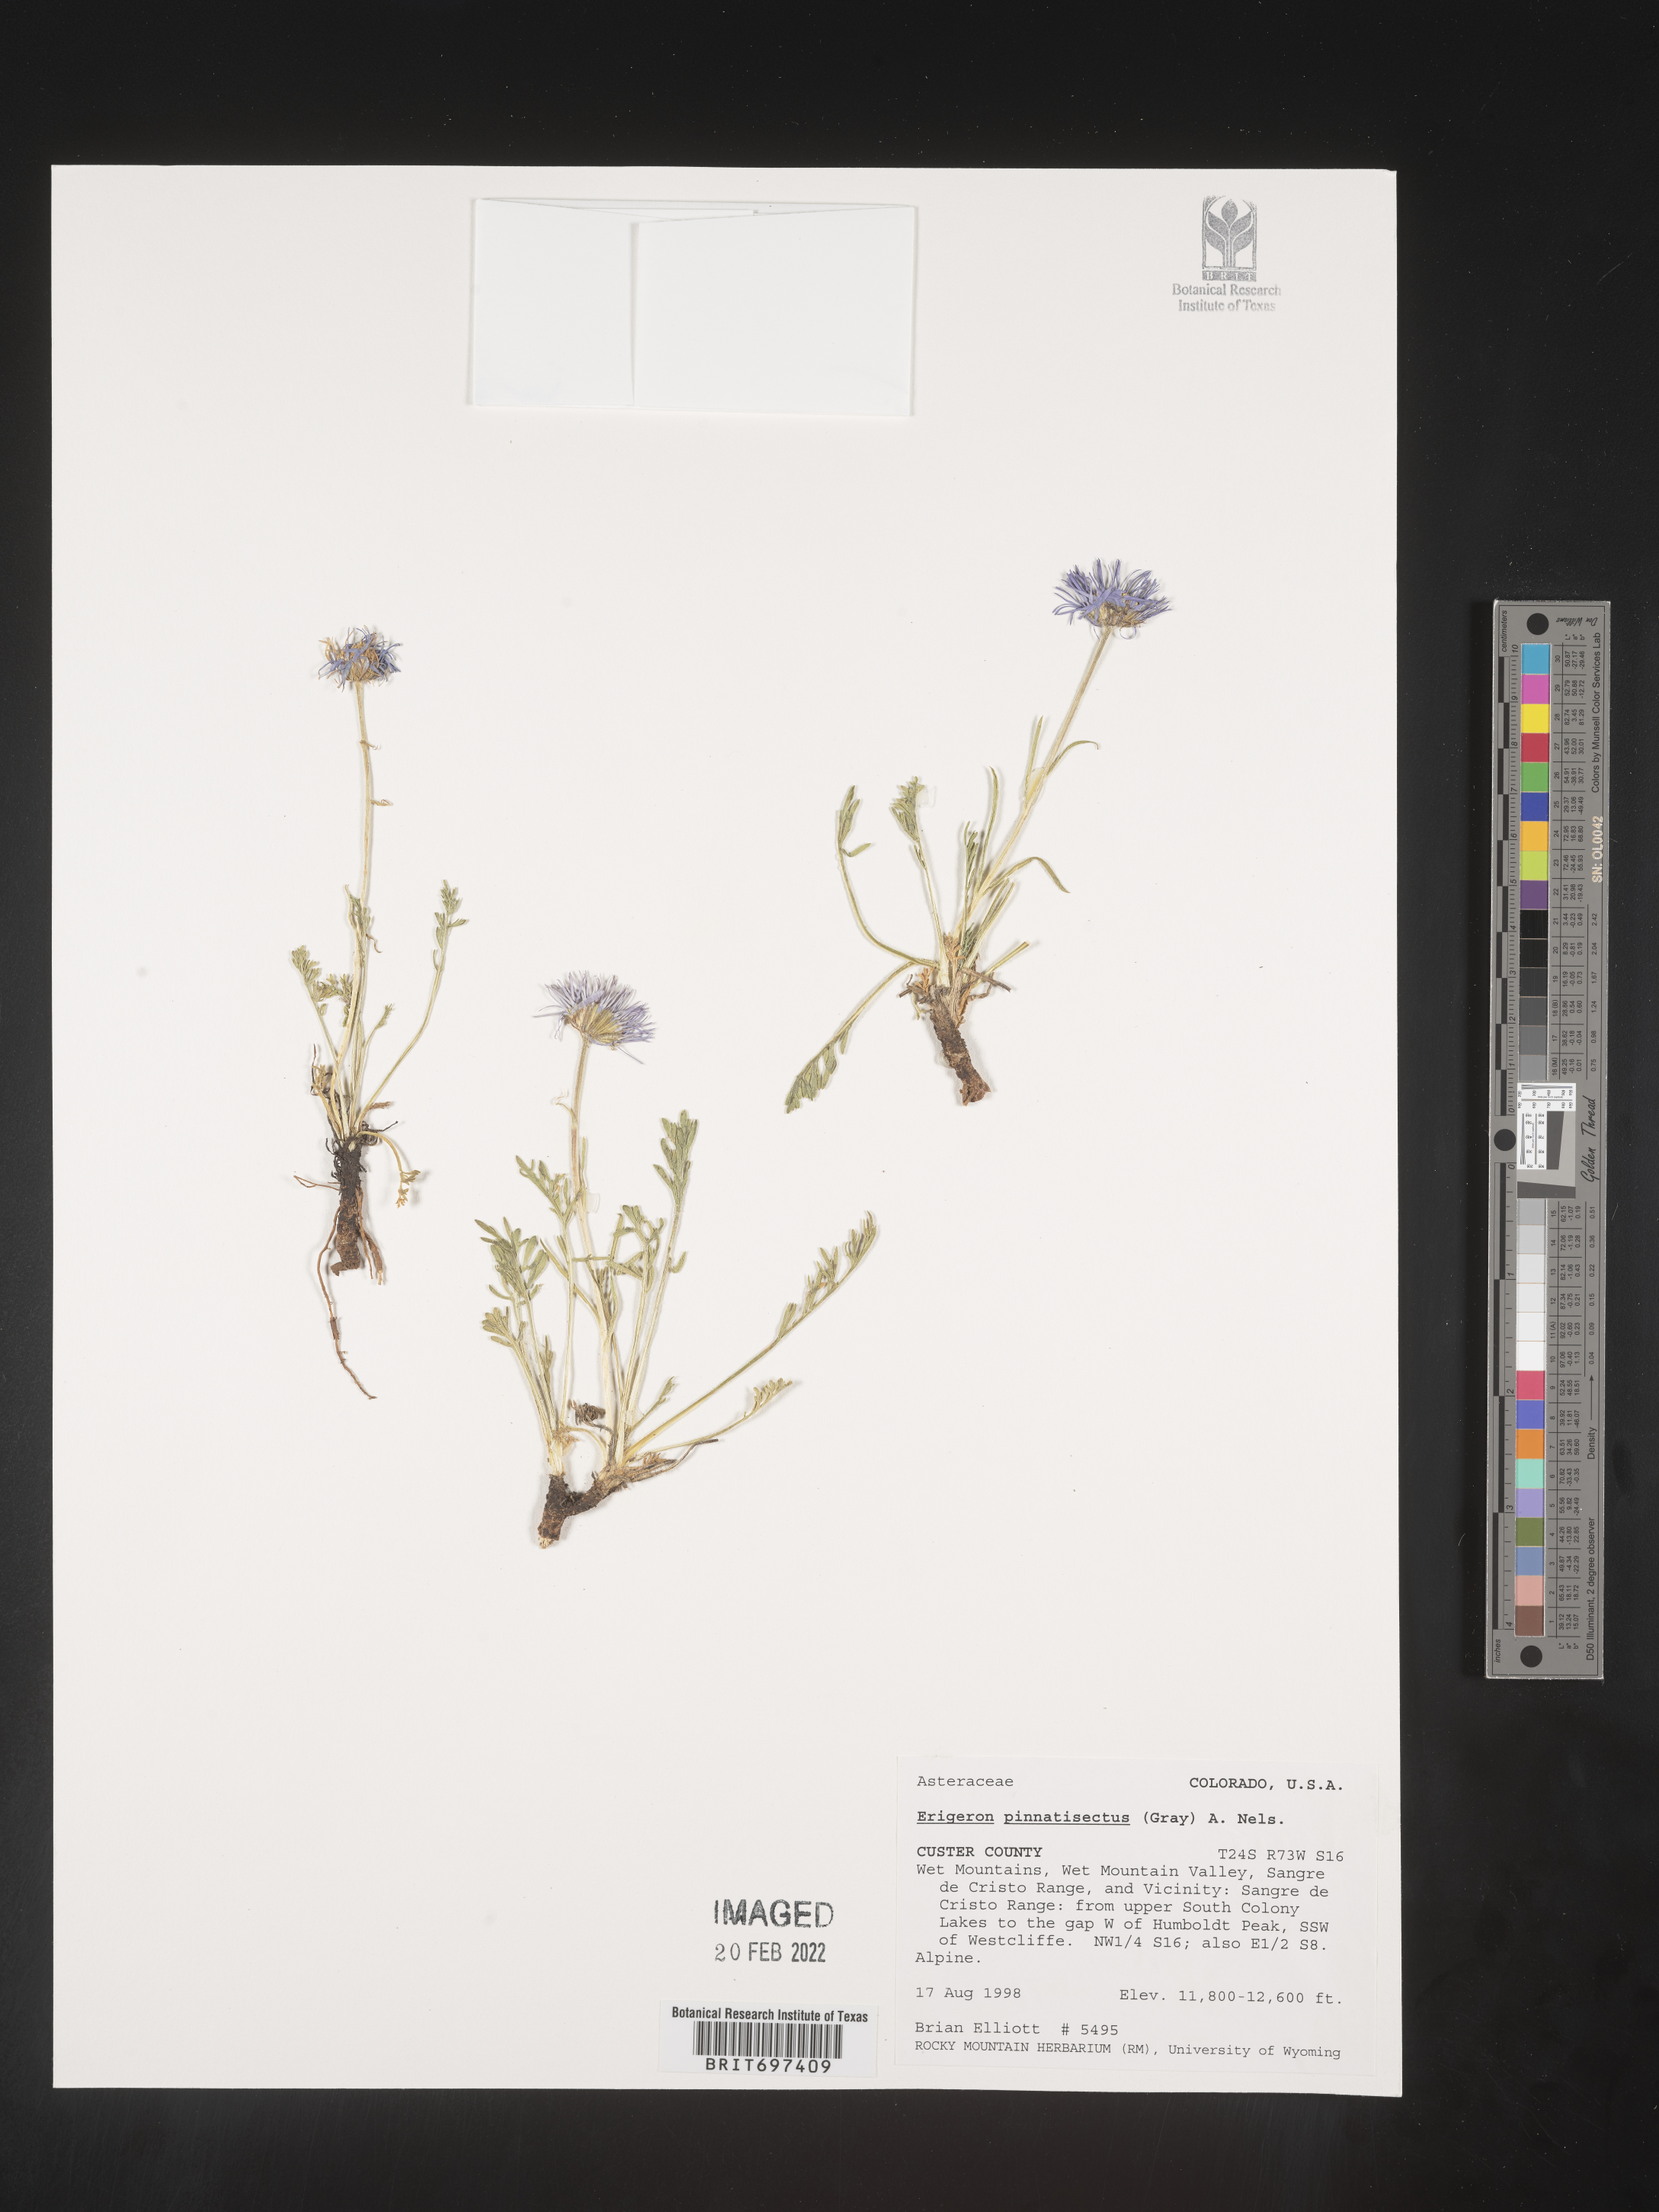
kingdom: Plantae
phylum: Tracheophyta
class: Magnoliopsida
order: Asterales
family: Asteraceae
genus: Erigeron
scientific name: Erigeron pinnatisectus
